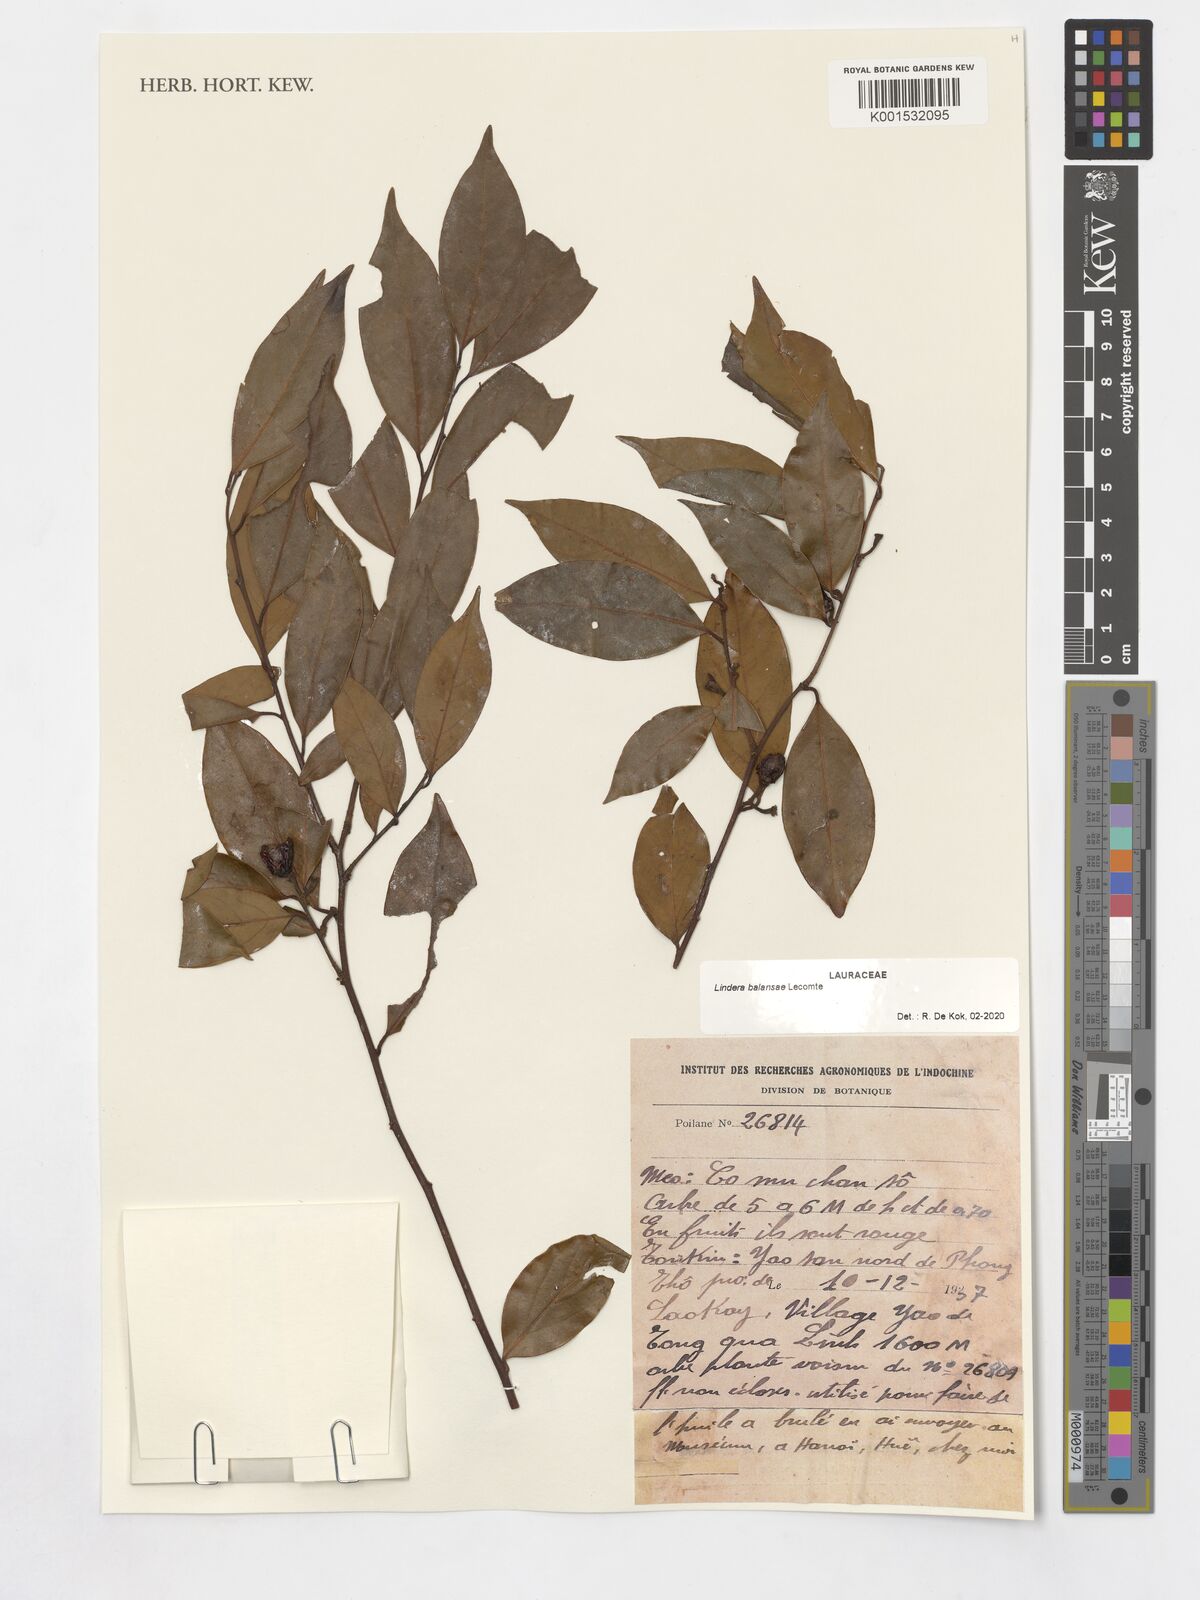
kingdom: Plantae
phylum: Tracheophyta
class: Magnoliopsida
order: Laurales
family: Lauraceae
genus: Lindera
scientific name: Lindera balansae
